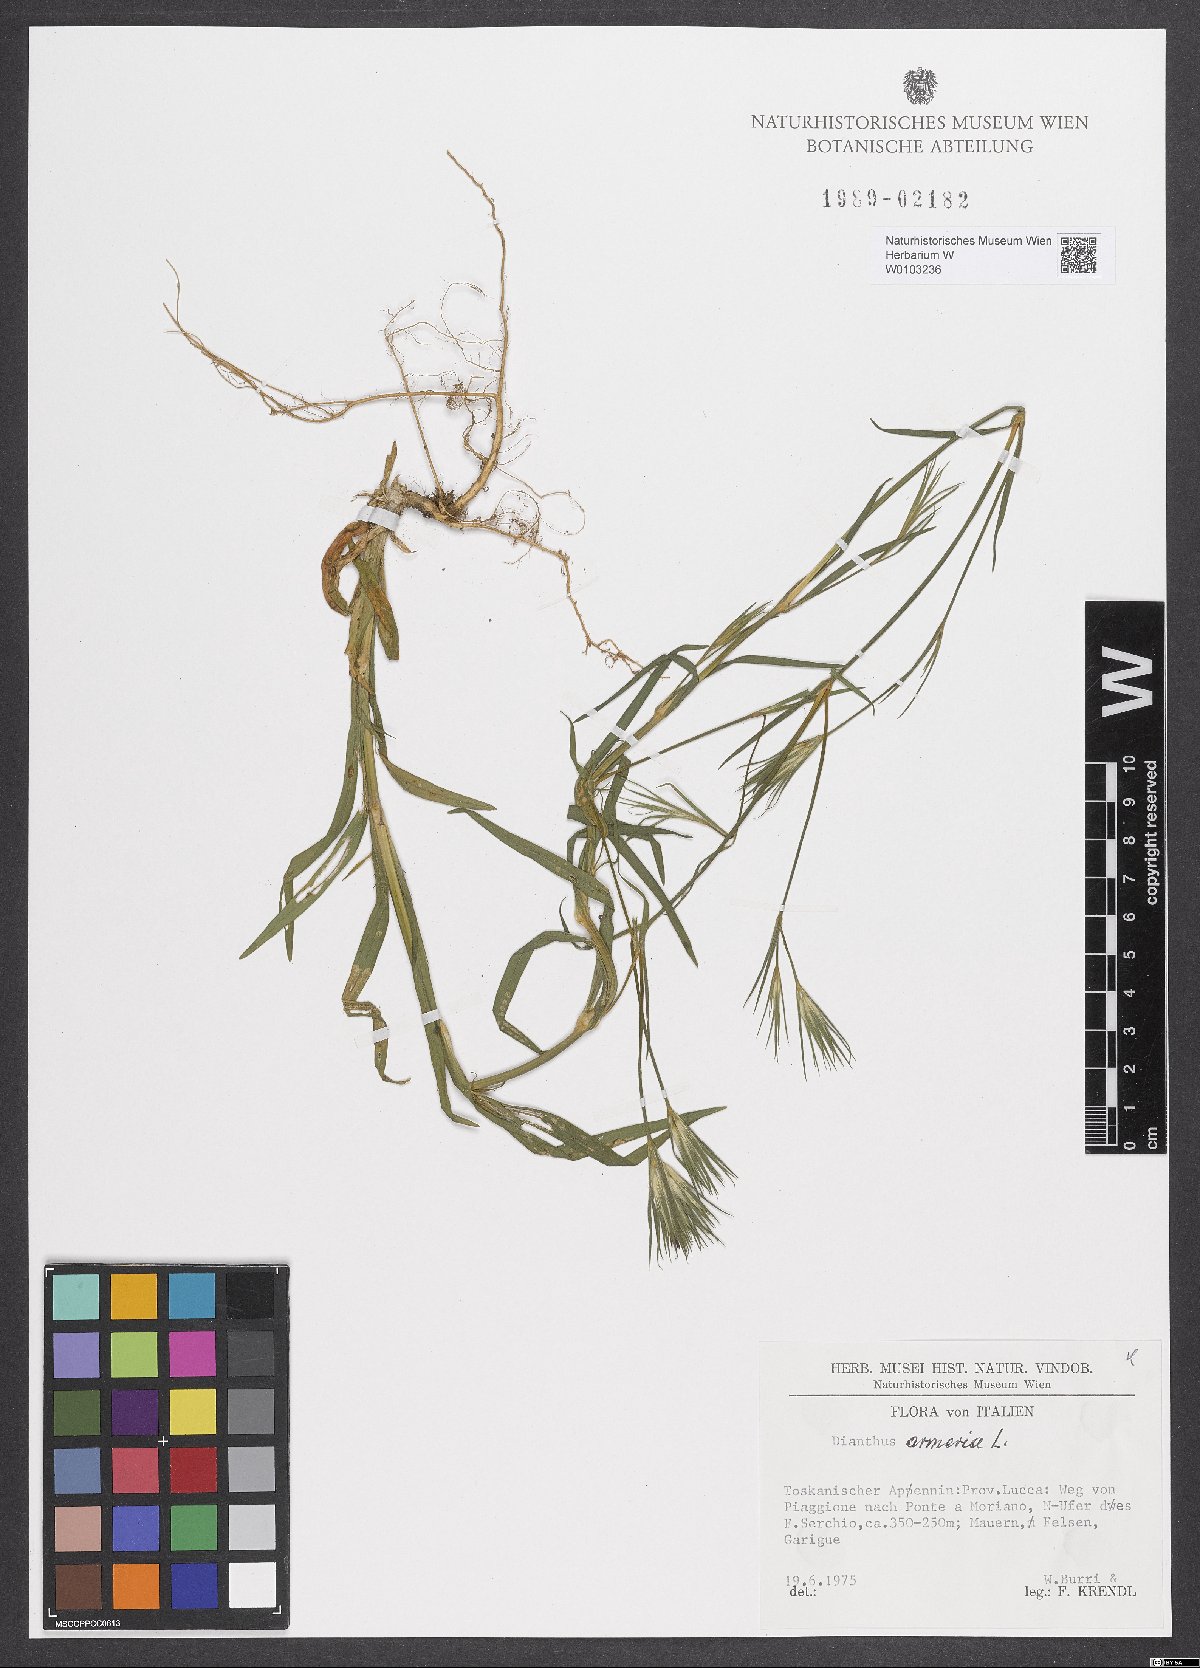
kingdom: Plantae
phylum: Tracheophyta
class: Magnoliopsida
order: Caryophyllales
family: Caryophyllaceae
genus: Dianthus
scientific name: Dianthus armeria
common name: Deptford pink
